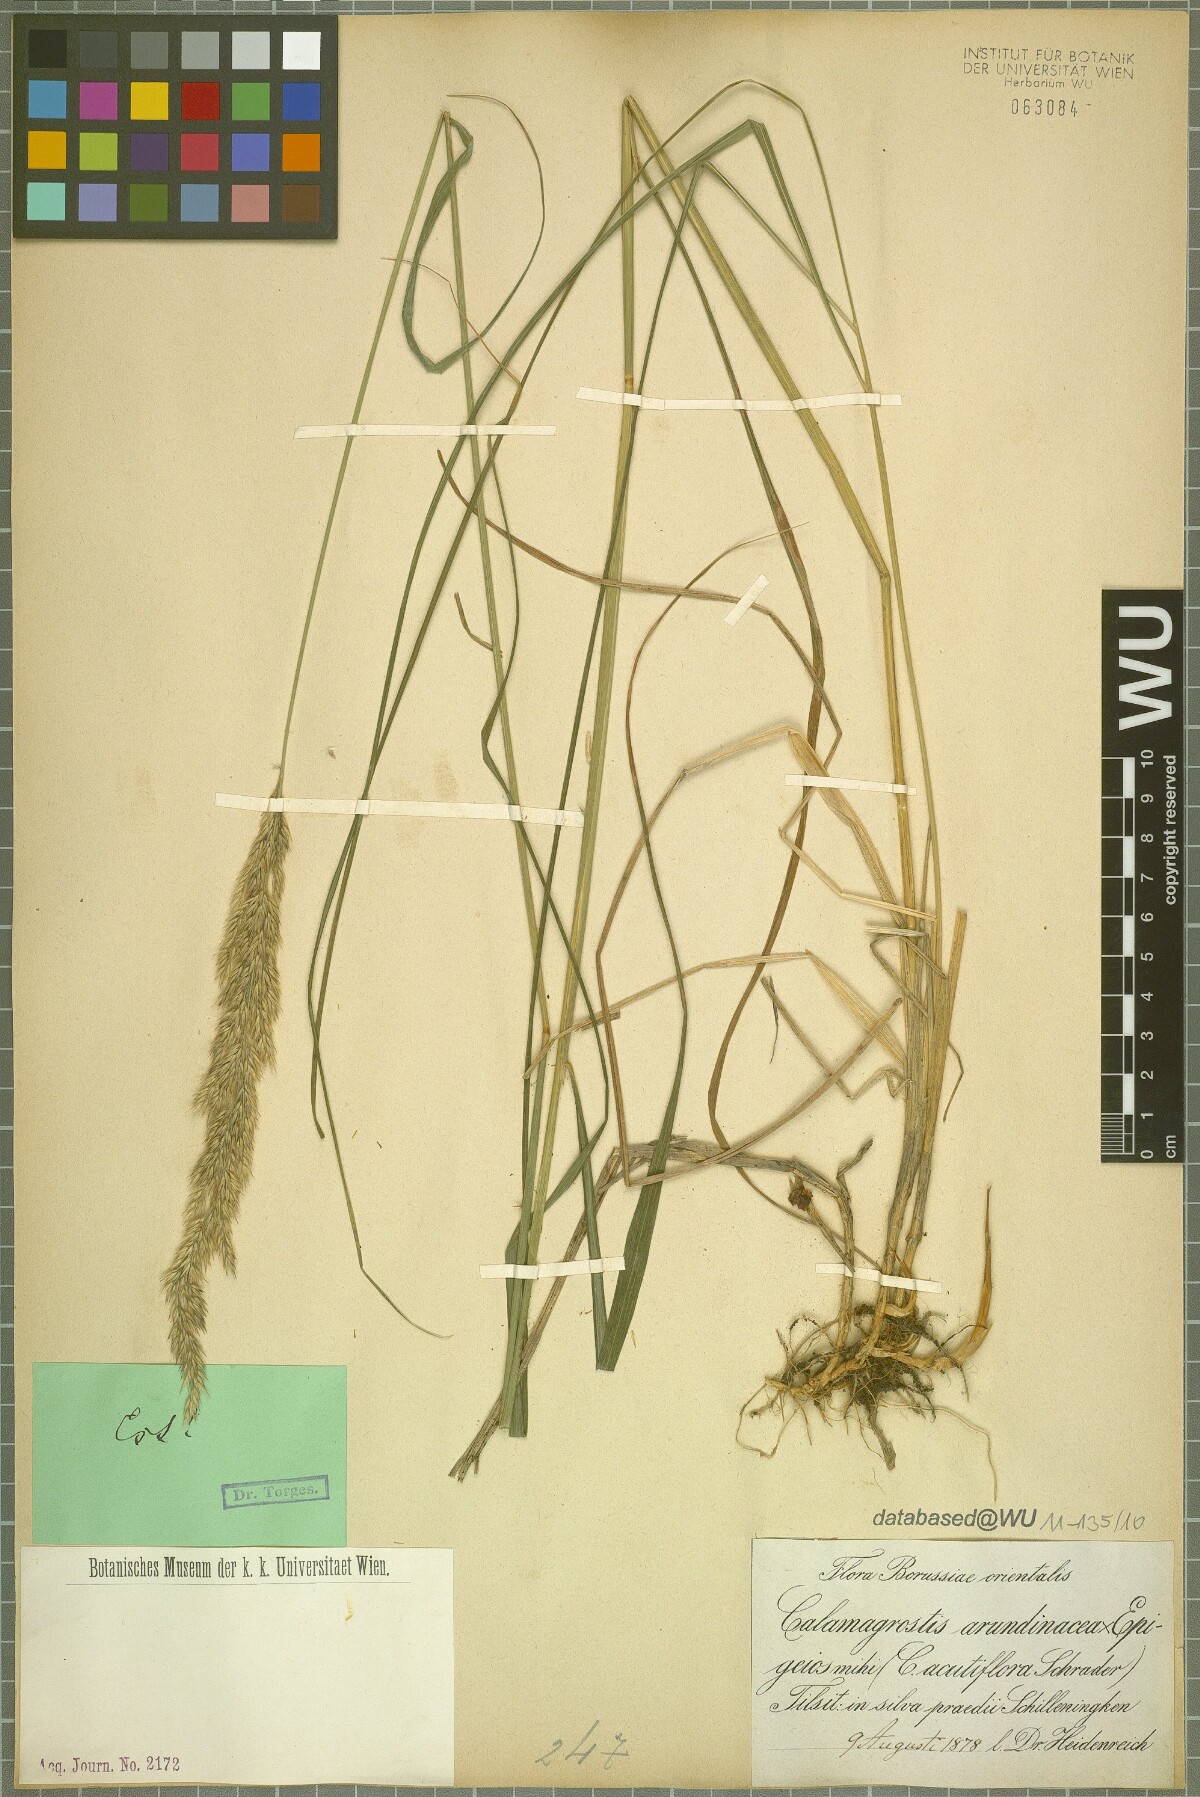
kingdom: Plantae
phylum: Tracheophyta
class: Liliopsida
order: Poales
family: Poaceae
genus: Calamagrostis
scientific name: Calamagrostis
